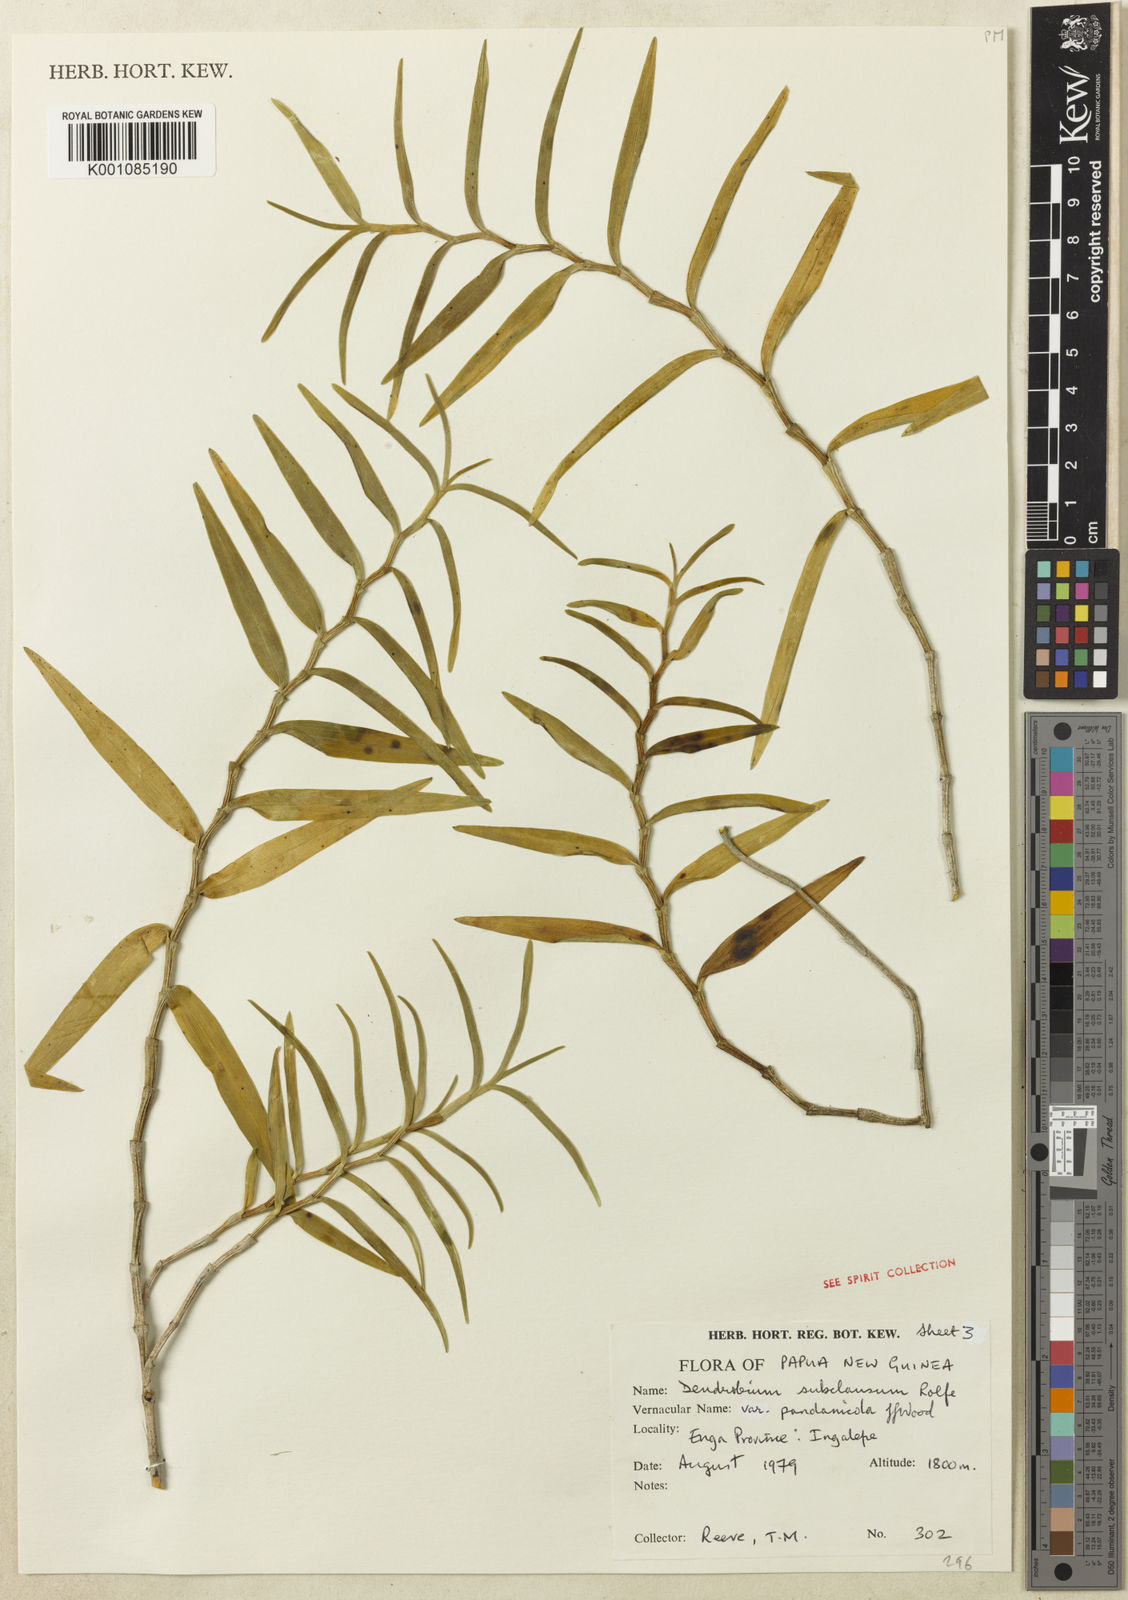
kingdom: Plantae
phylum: Tracheophyta
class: Liliopsida
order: Asparagales
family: Orchidaceae
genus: Dendrobium
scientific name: Dendrobium subclausum
